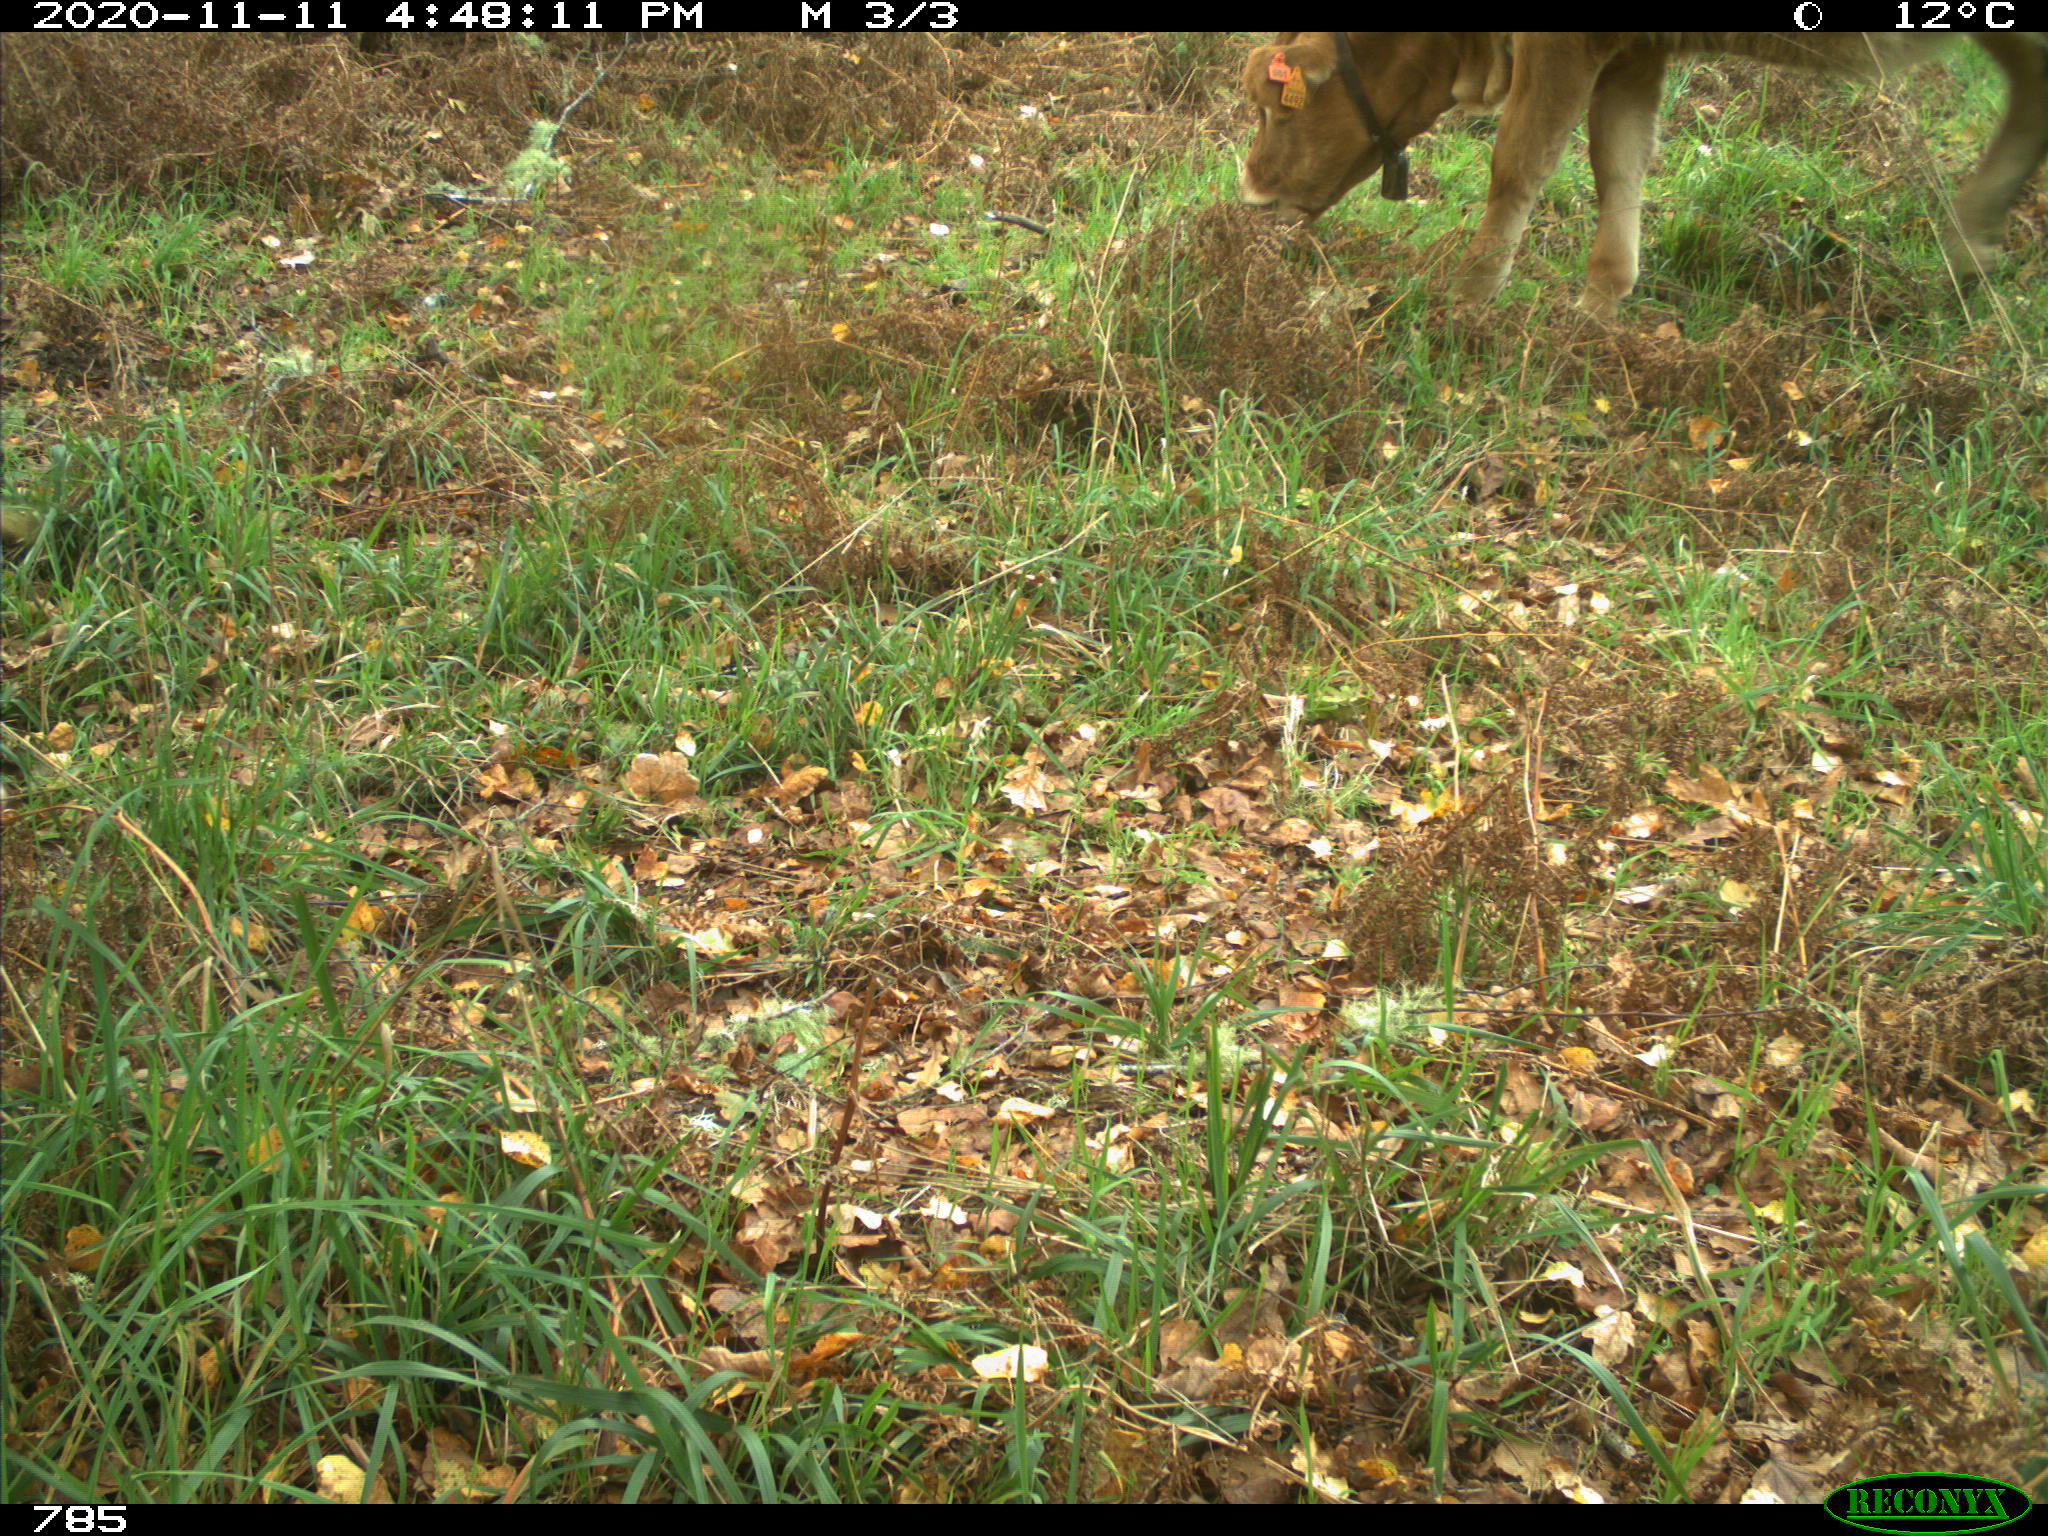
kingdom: Animalia
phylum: Chordata
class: Mammalia
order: Artiodactyla
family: Bovidae
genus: Bos
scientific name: Bos taurus
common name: Domesticated cattle
